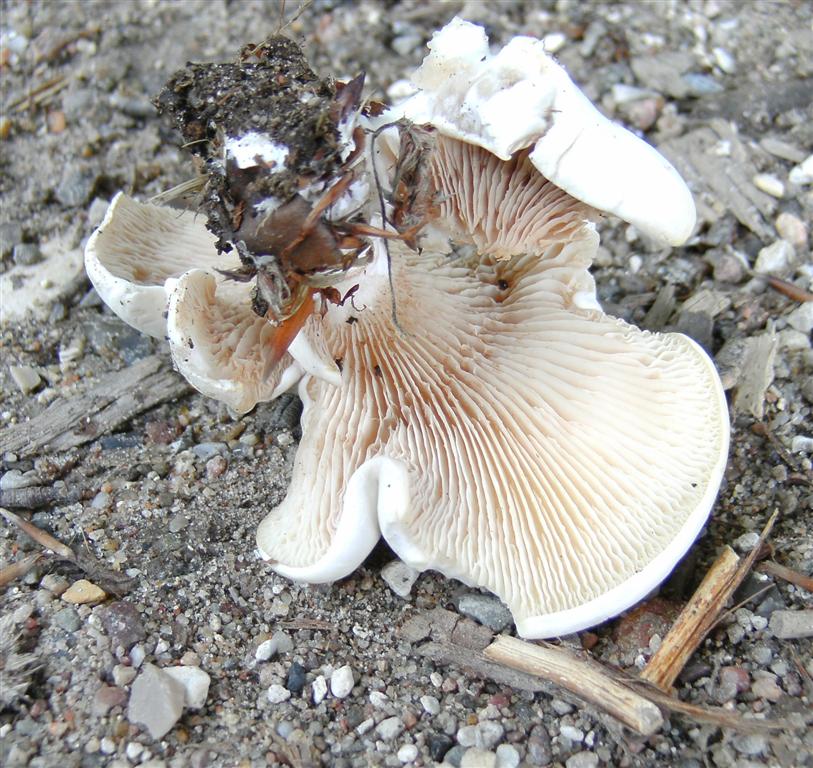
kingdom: Fungi
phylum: Basidiomycota
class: Agaricomycetes
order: Agaricales
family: Entolomataceae
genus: Clitopilus
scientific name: Clitopilus prunulus
